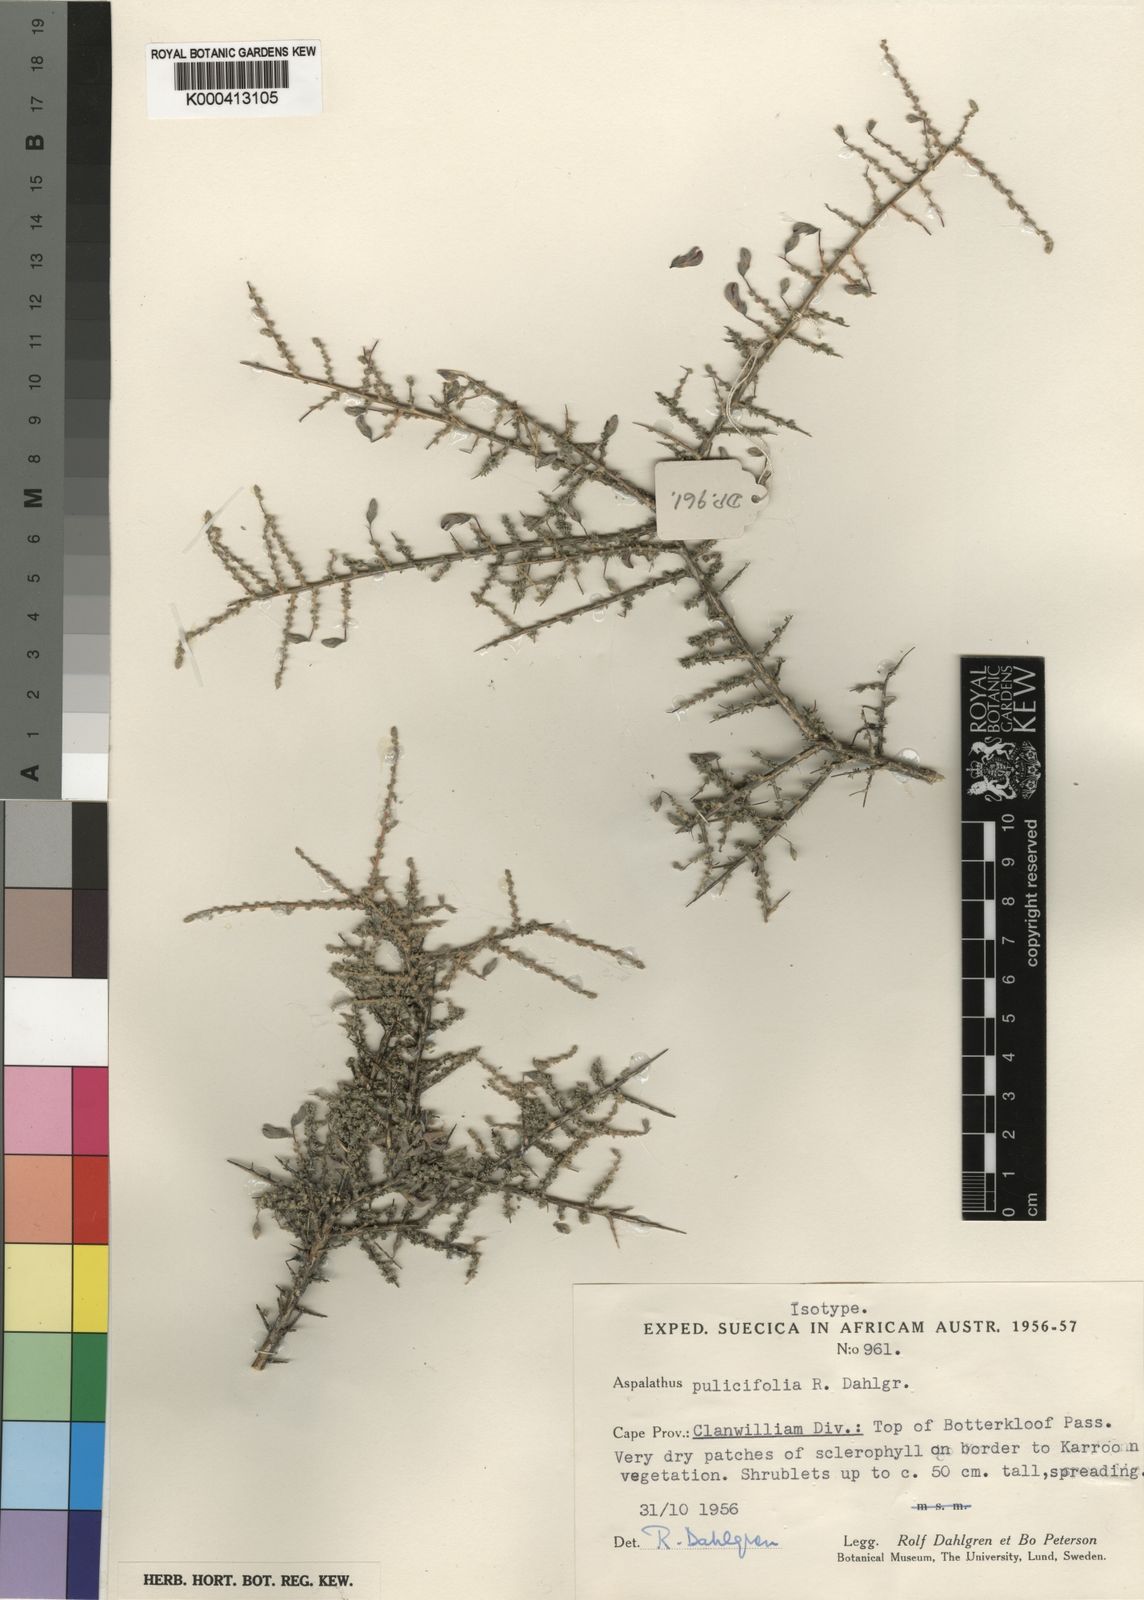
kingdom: Plantae
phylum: Tracheophyta
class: Magnoliopsida
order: Fabales
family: Fabaceae
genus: Aspalathus
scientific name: Aspalathus pulicifolia
